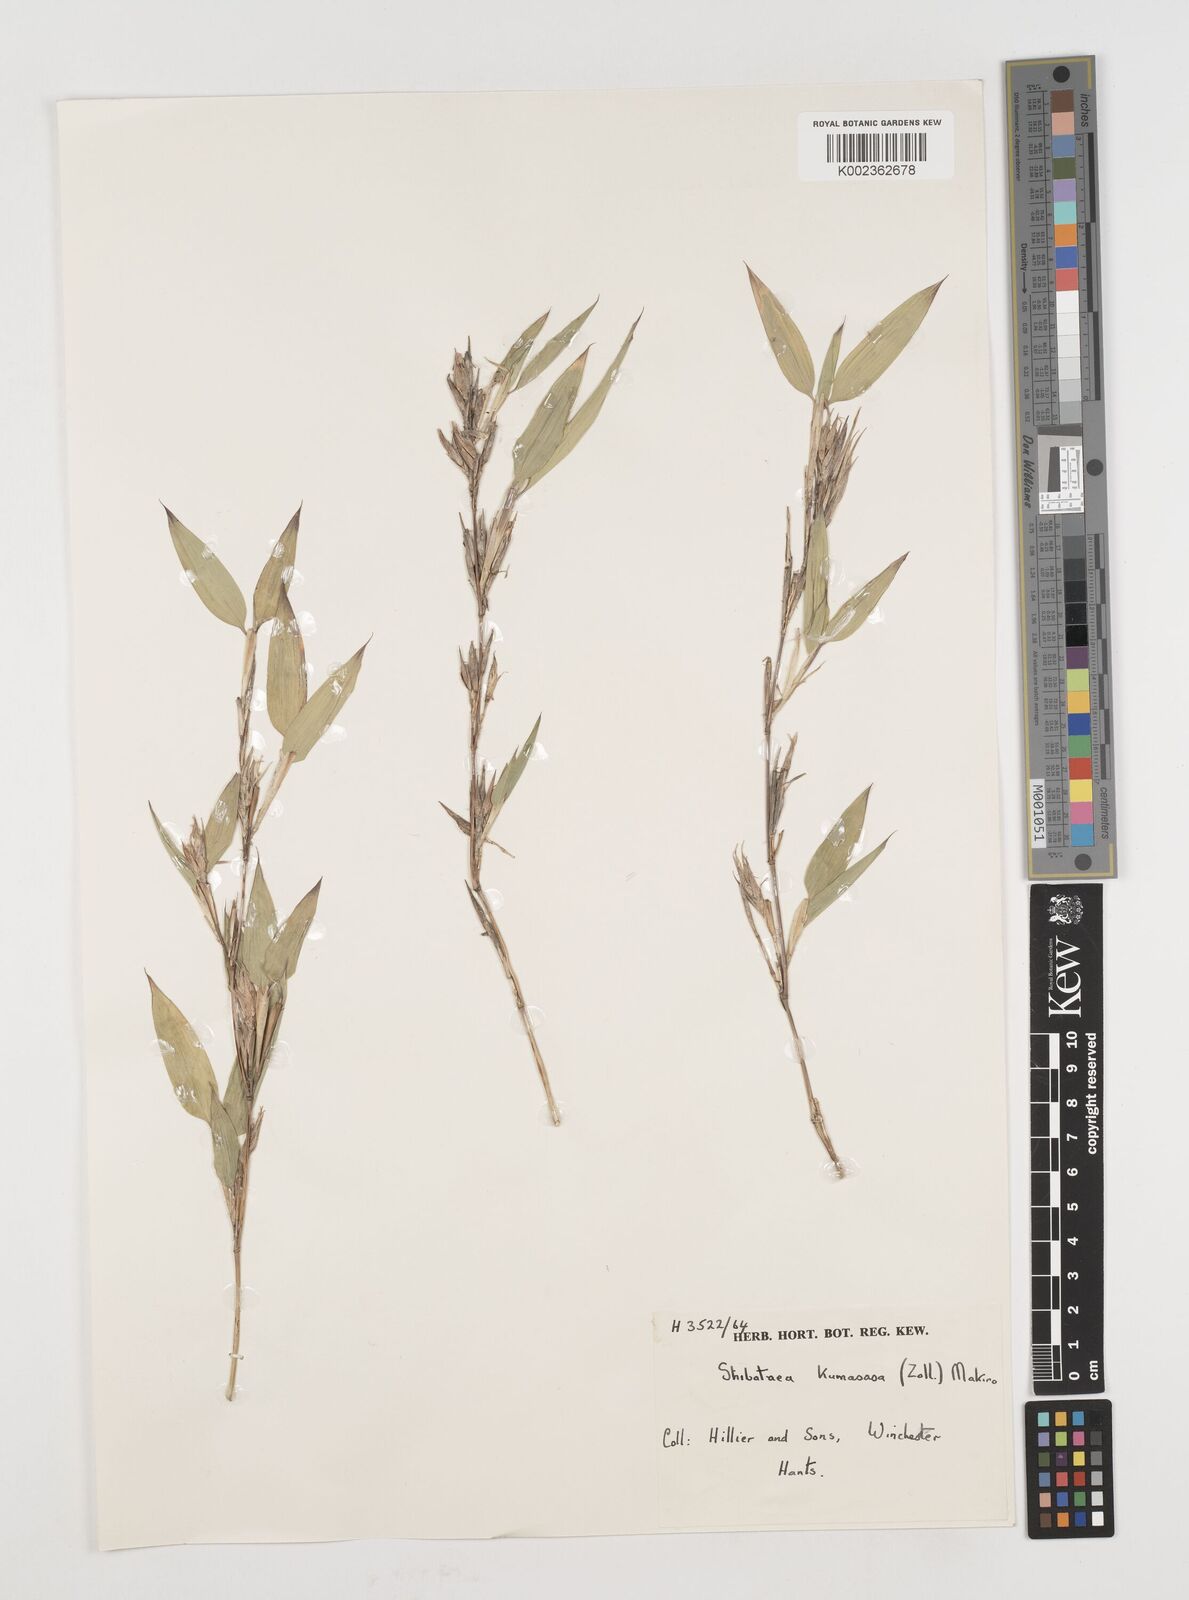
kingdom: Plantae
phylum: Tracheophyta
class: Liliopsida
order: Poales
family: Poaceae
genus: Shibataea
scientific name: Shibataea kumasasa
